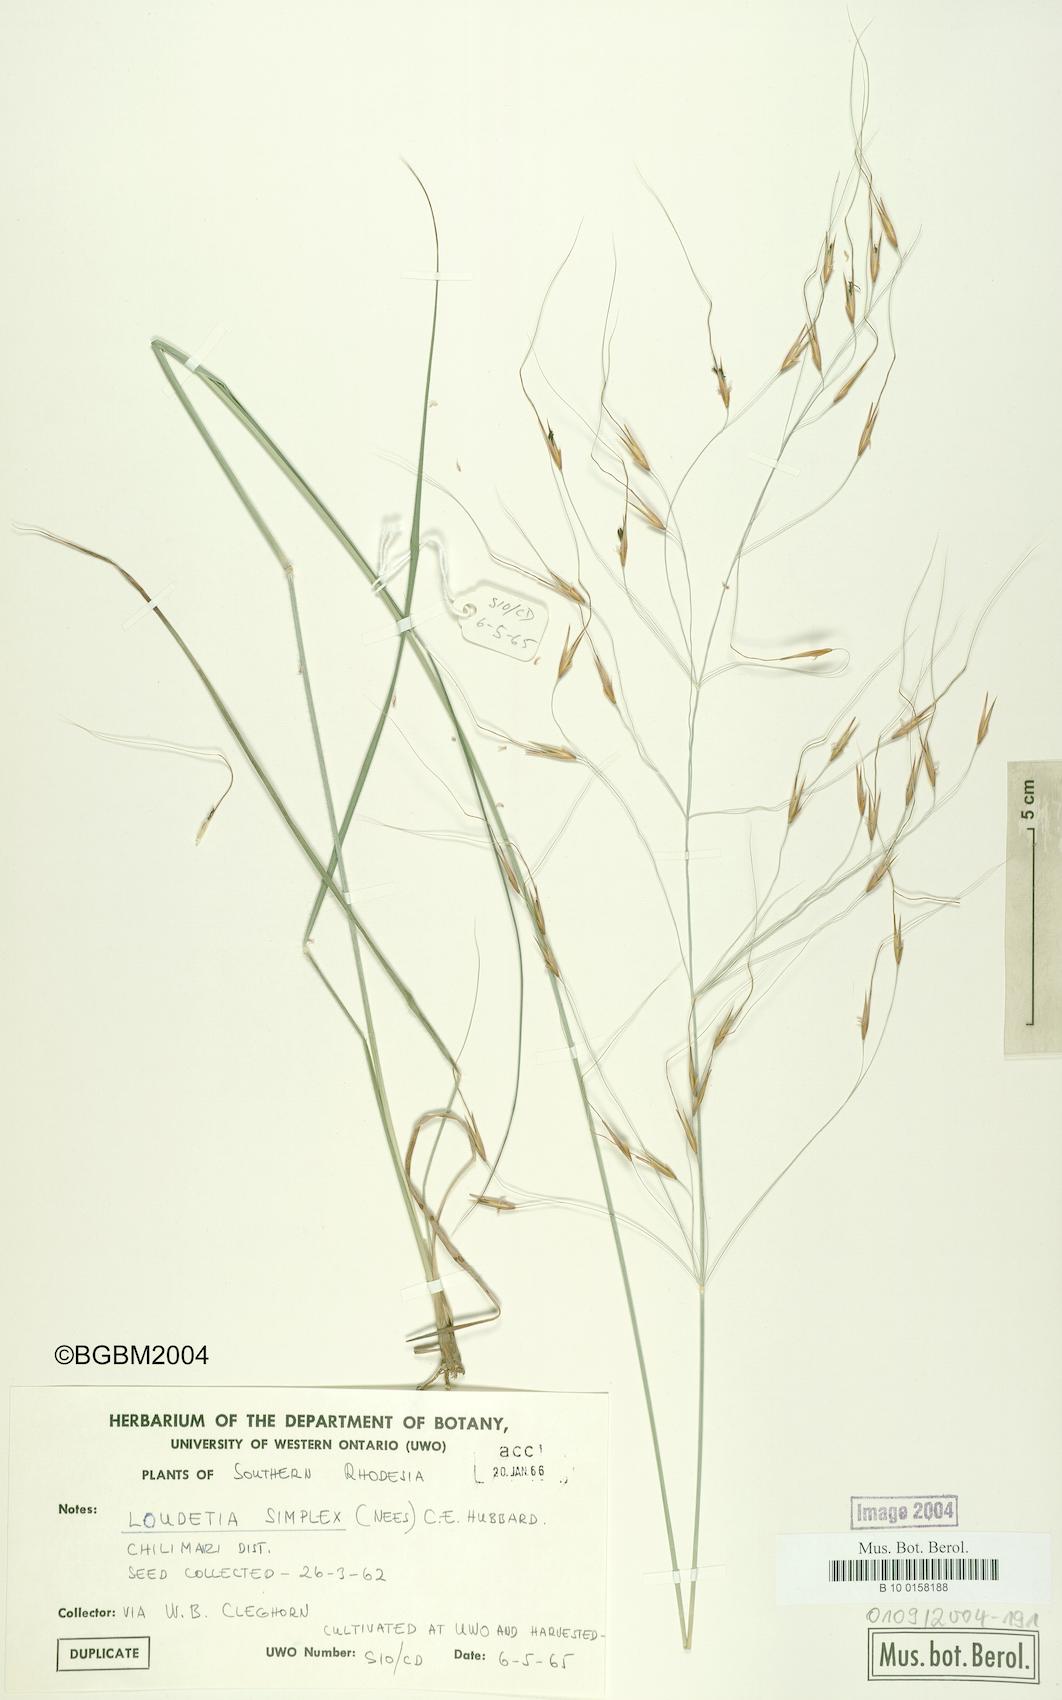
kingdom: Plantae
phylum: Tracheophyta
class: Liliopsida
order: Poales
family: Poaceae
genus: Loudetia
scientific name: Loudetia simplex
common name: Common russet grass
